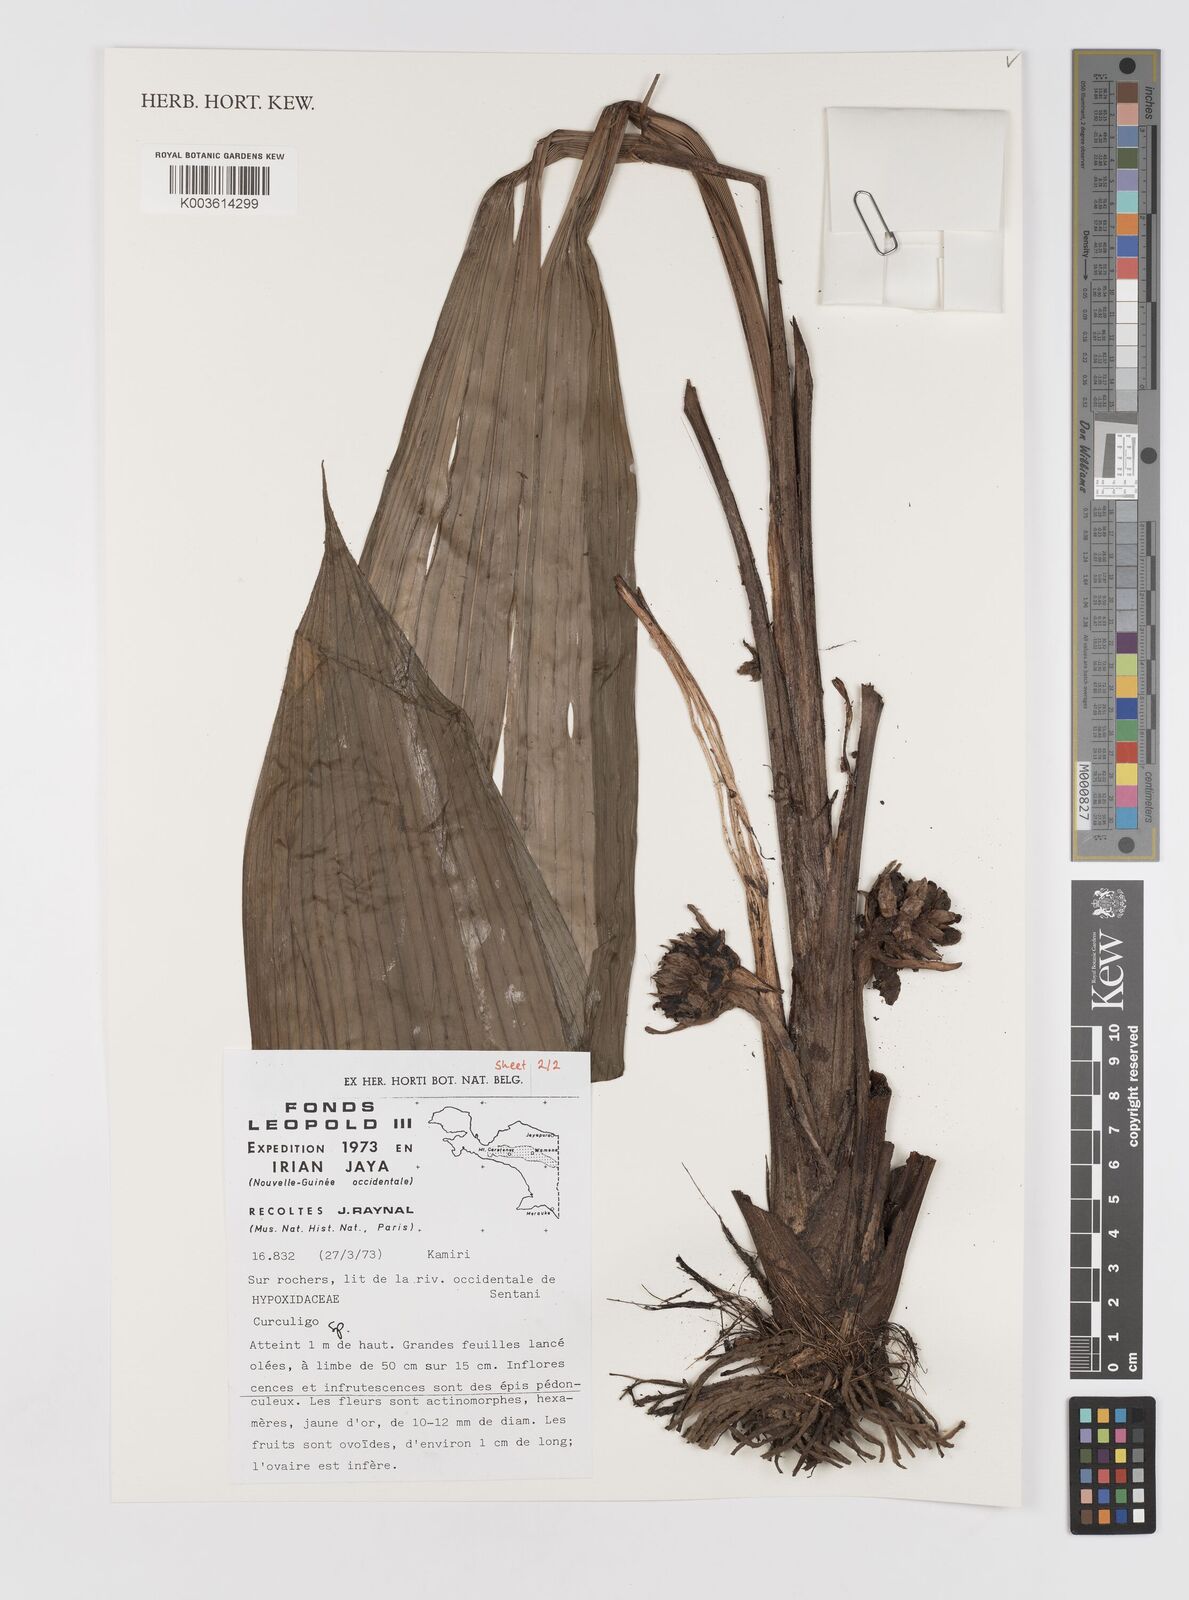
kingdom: Plantae
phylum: Tracheophyta
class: Liliopsida
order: Asparagales
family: Hypoxidaceae
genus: Curculigo
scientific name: Curculigo
